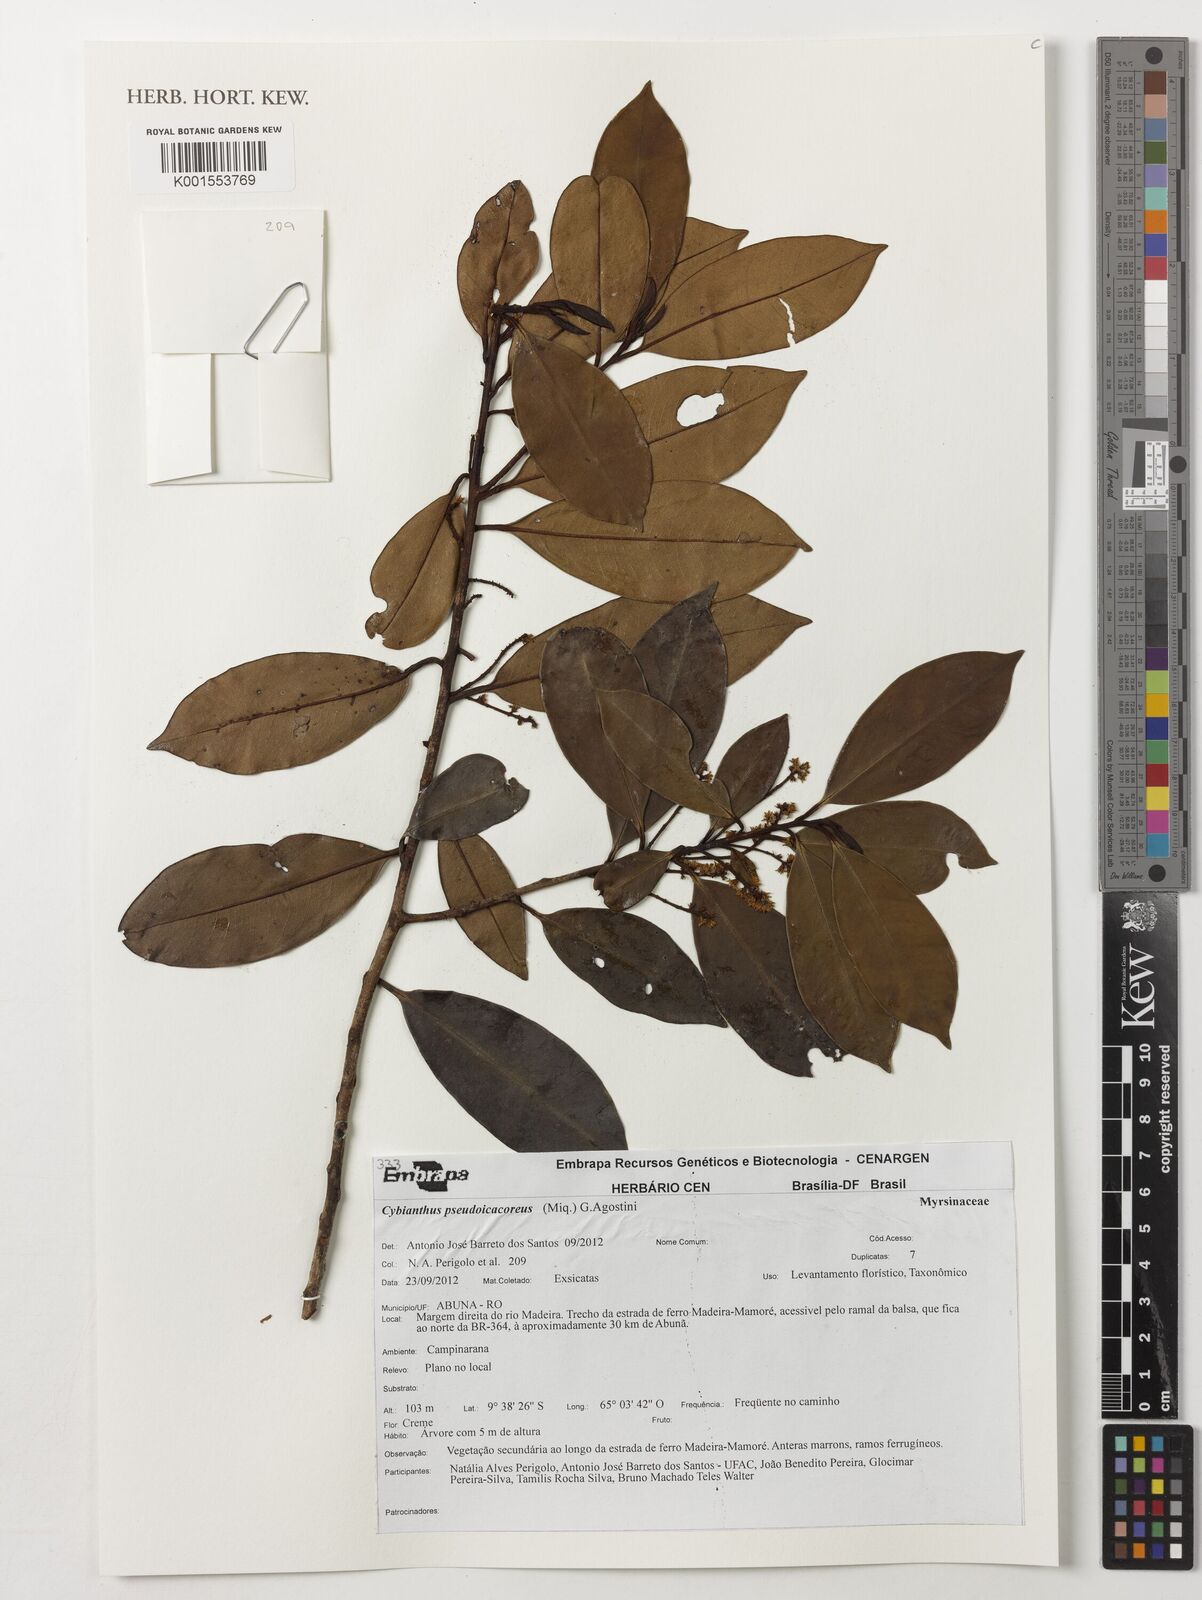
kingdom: Plantae
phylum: Tracheophyta
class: Magnoliopsida
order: Ericales
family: Primulaceae
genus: Cybianthus
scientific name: Cybianthus guyanensis
